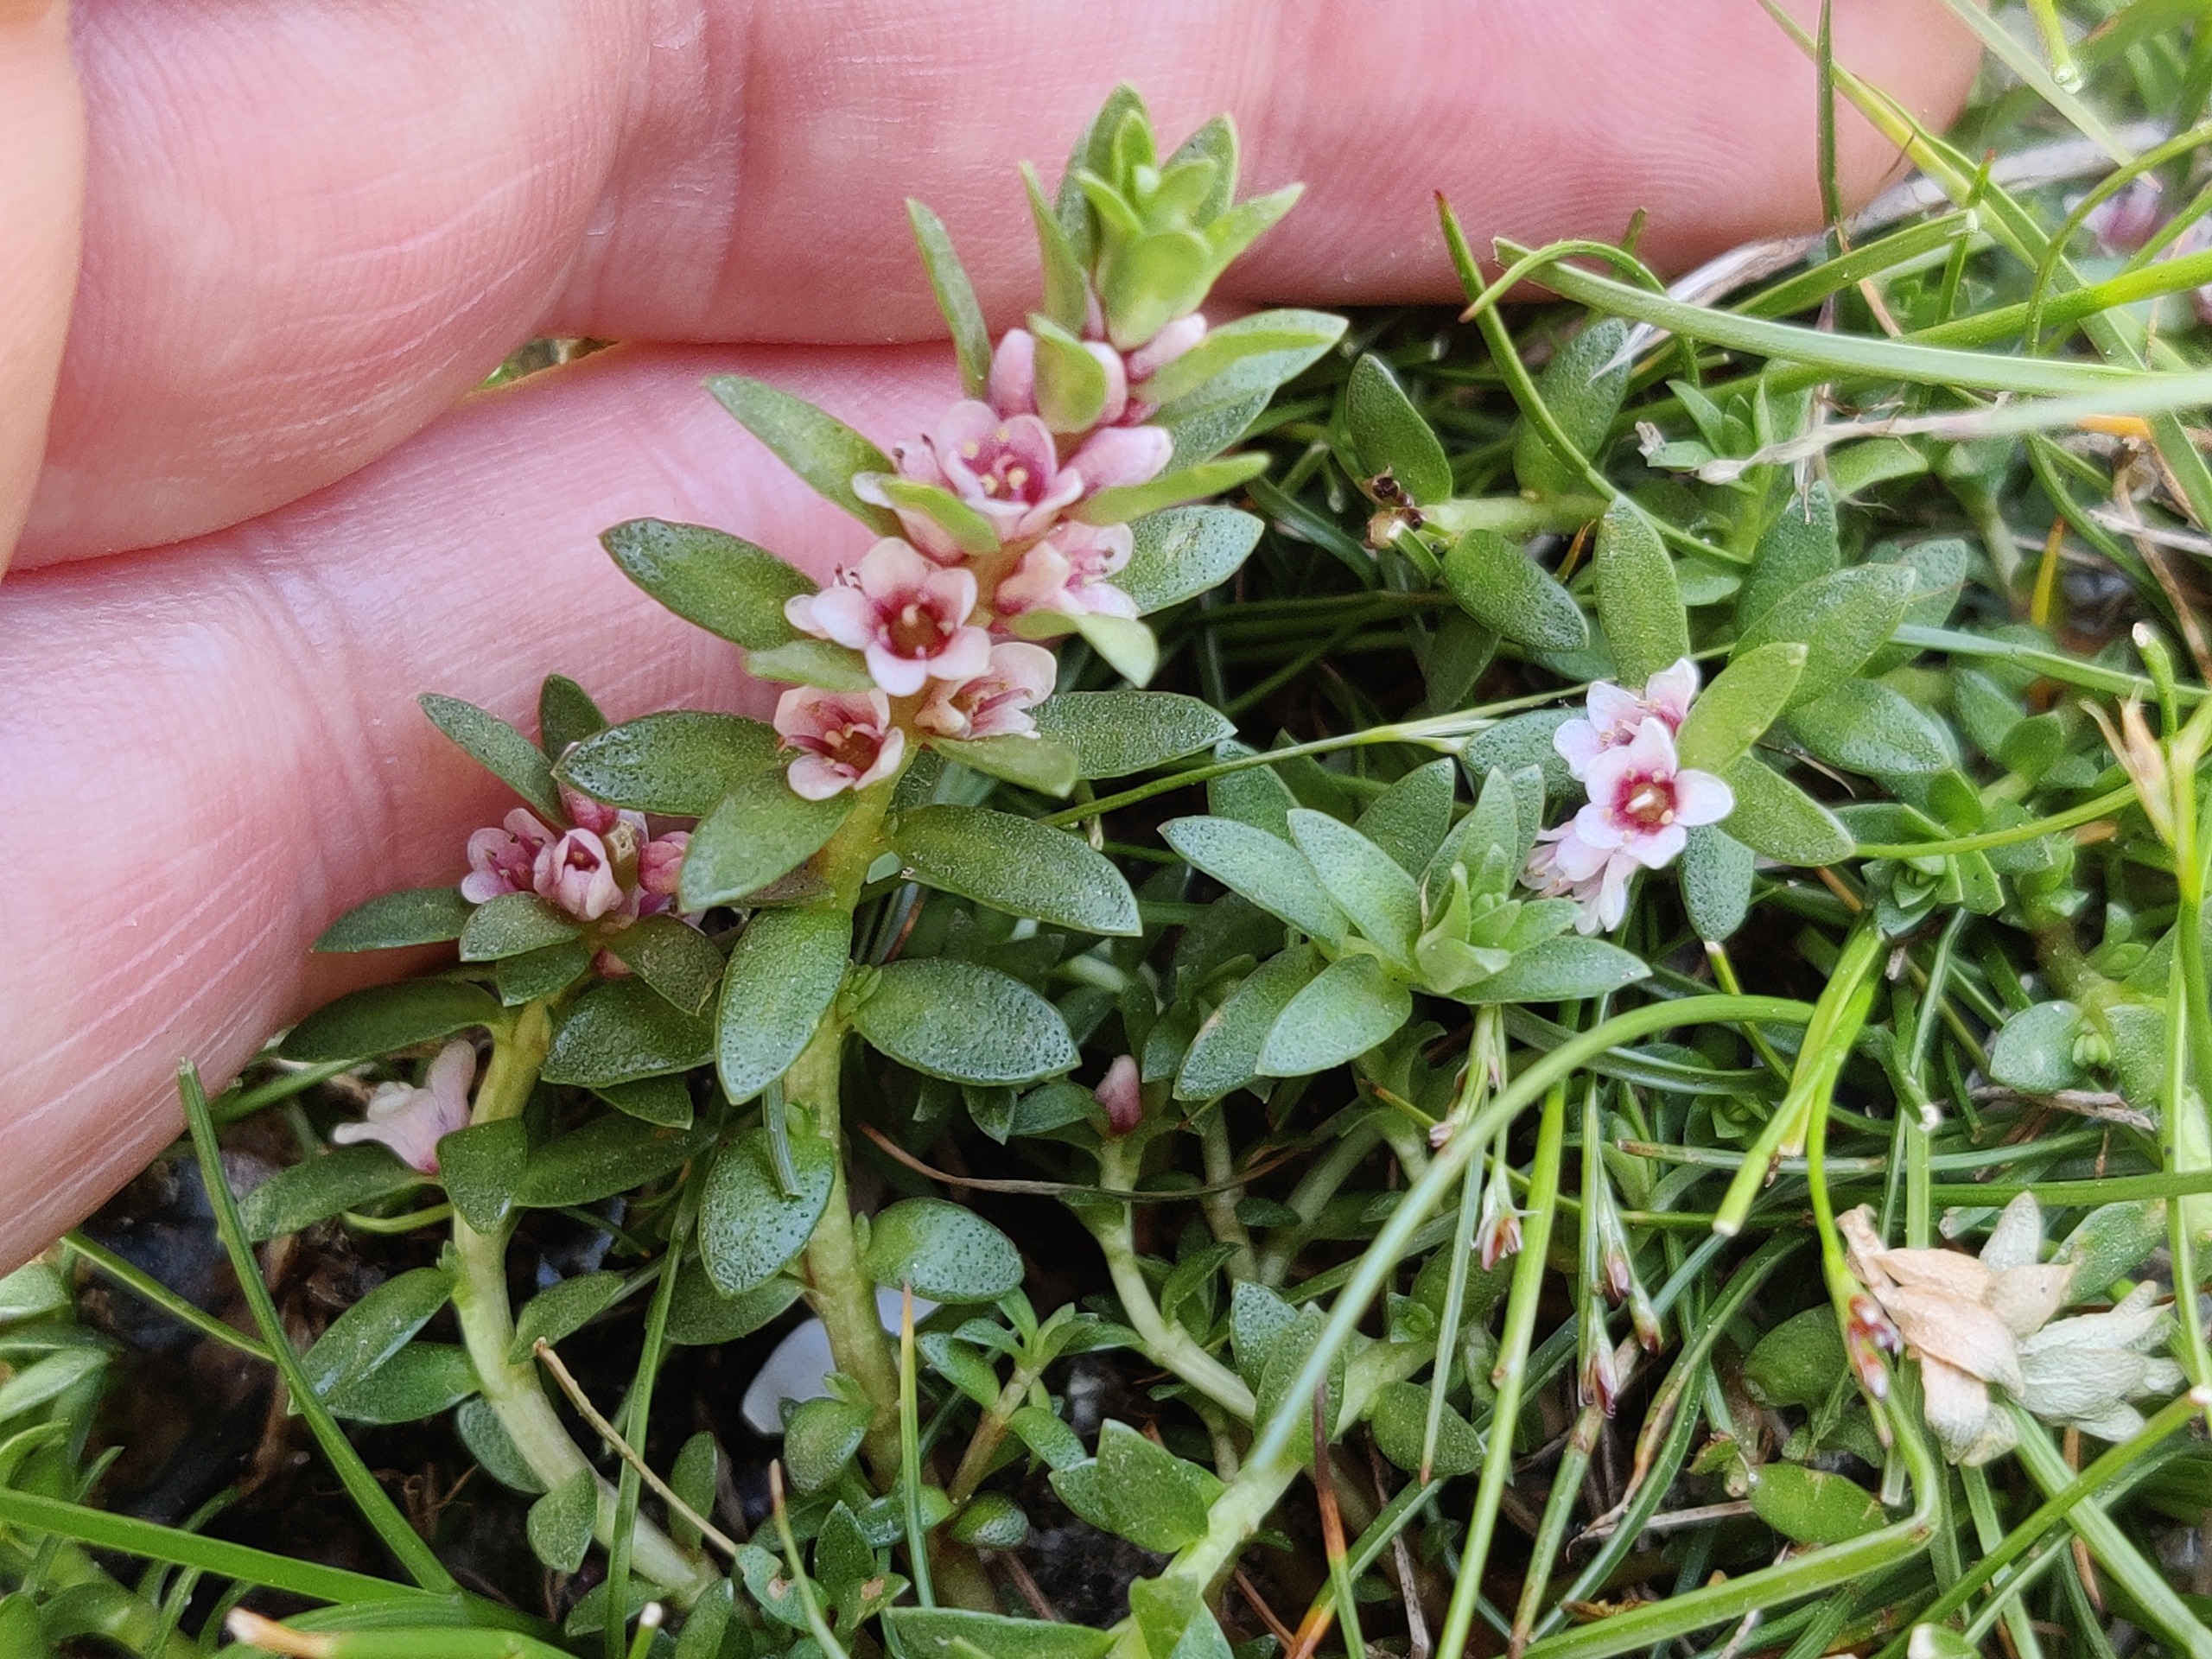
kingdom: Plantae
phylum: Tracheophyta
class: Magnoliopsida
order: Ericales
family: Primulaceae
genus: Lysimachia
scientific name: Lysimachia maritima
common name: Sandkryb
